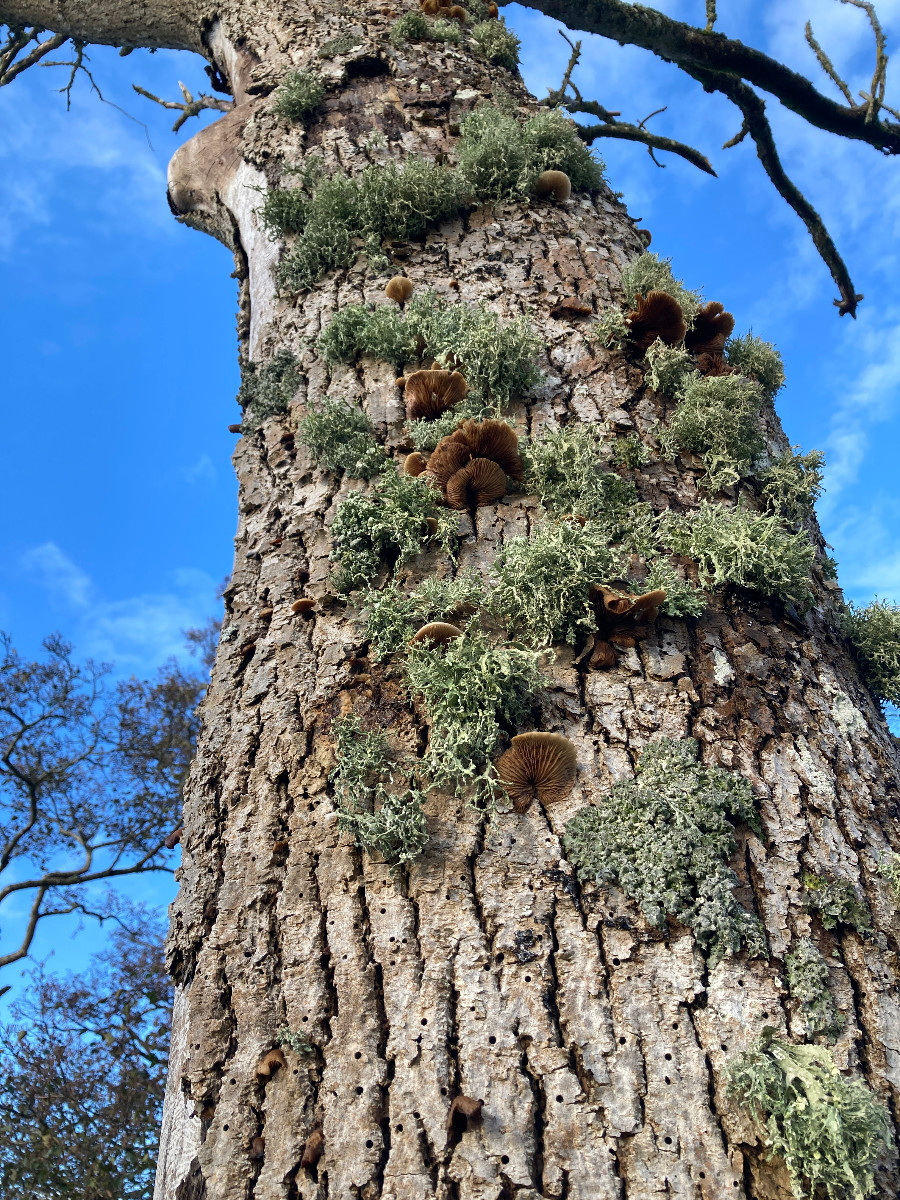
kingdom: Fungi
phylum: Basidiomycota
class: Agaricomycetes
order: Agaricales
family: Crepidotaceae
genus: Crepidotus
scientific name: Crepidotus mollis
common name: blød muslingesvamp
